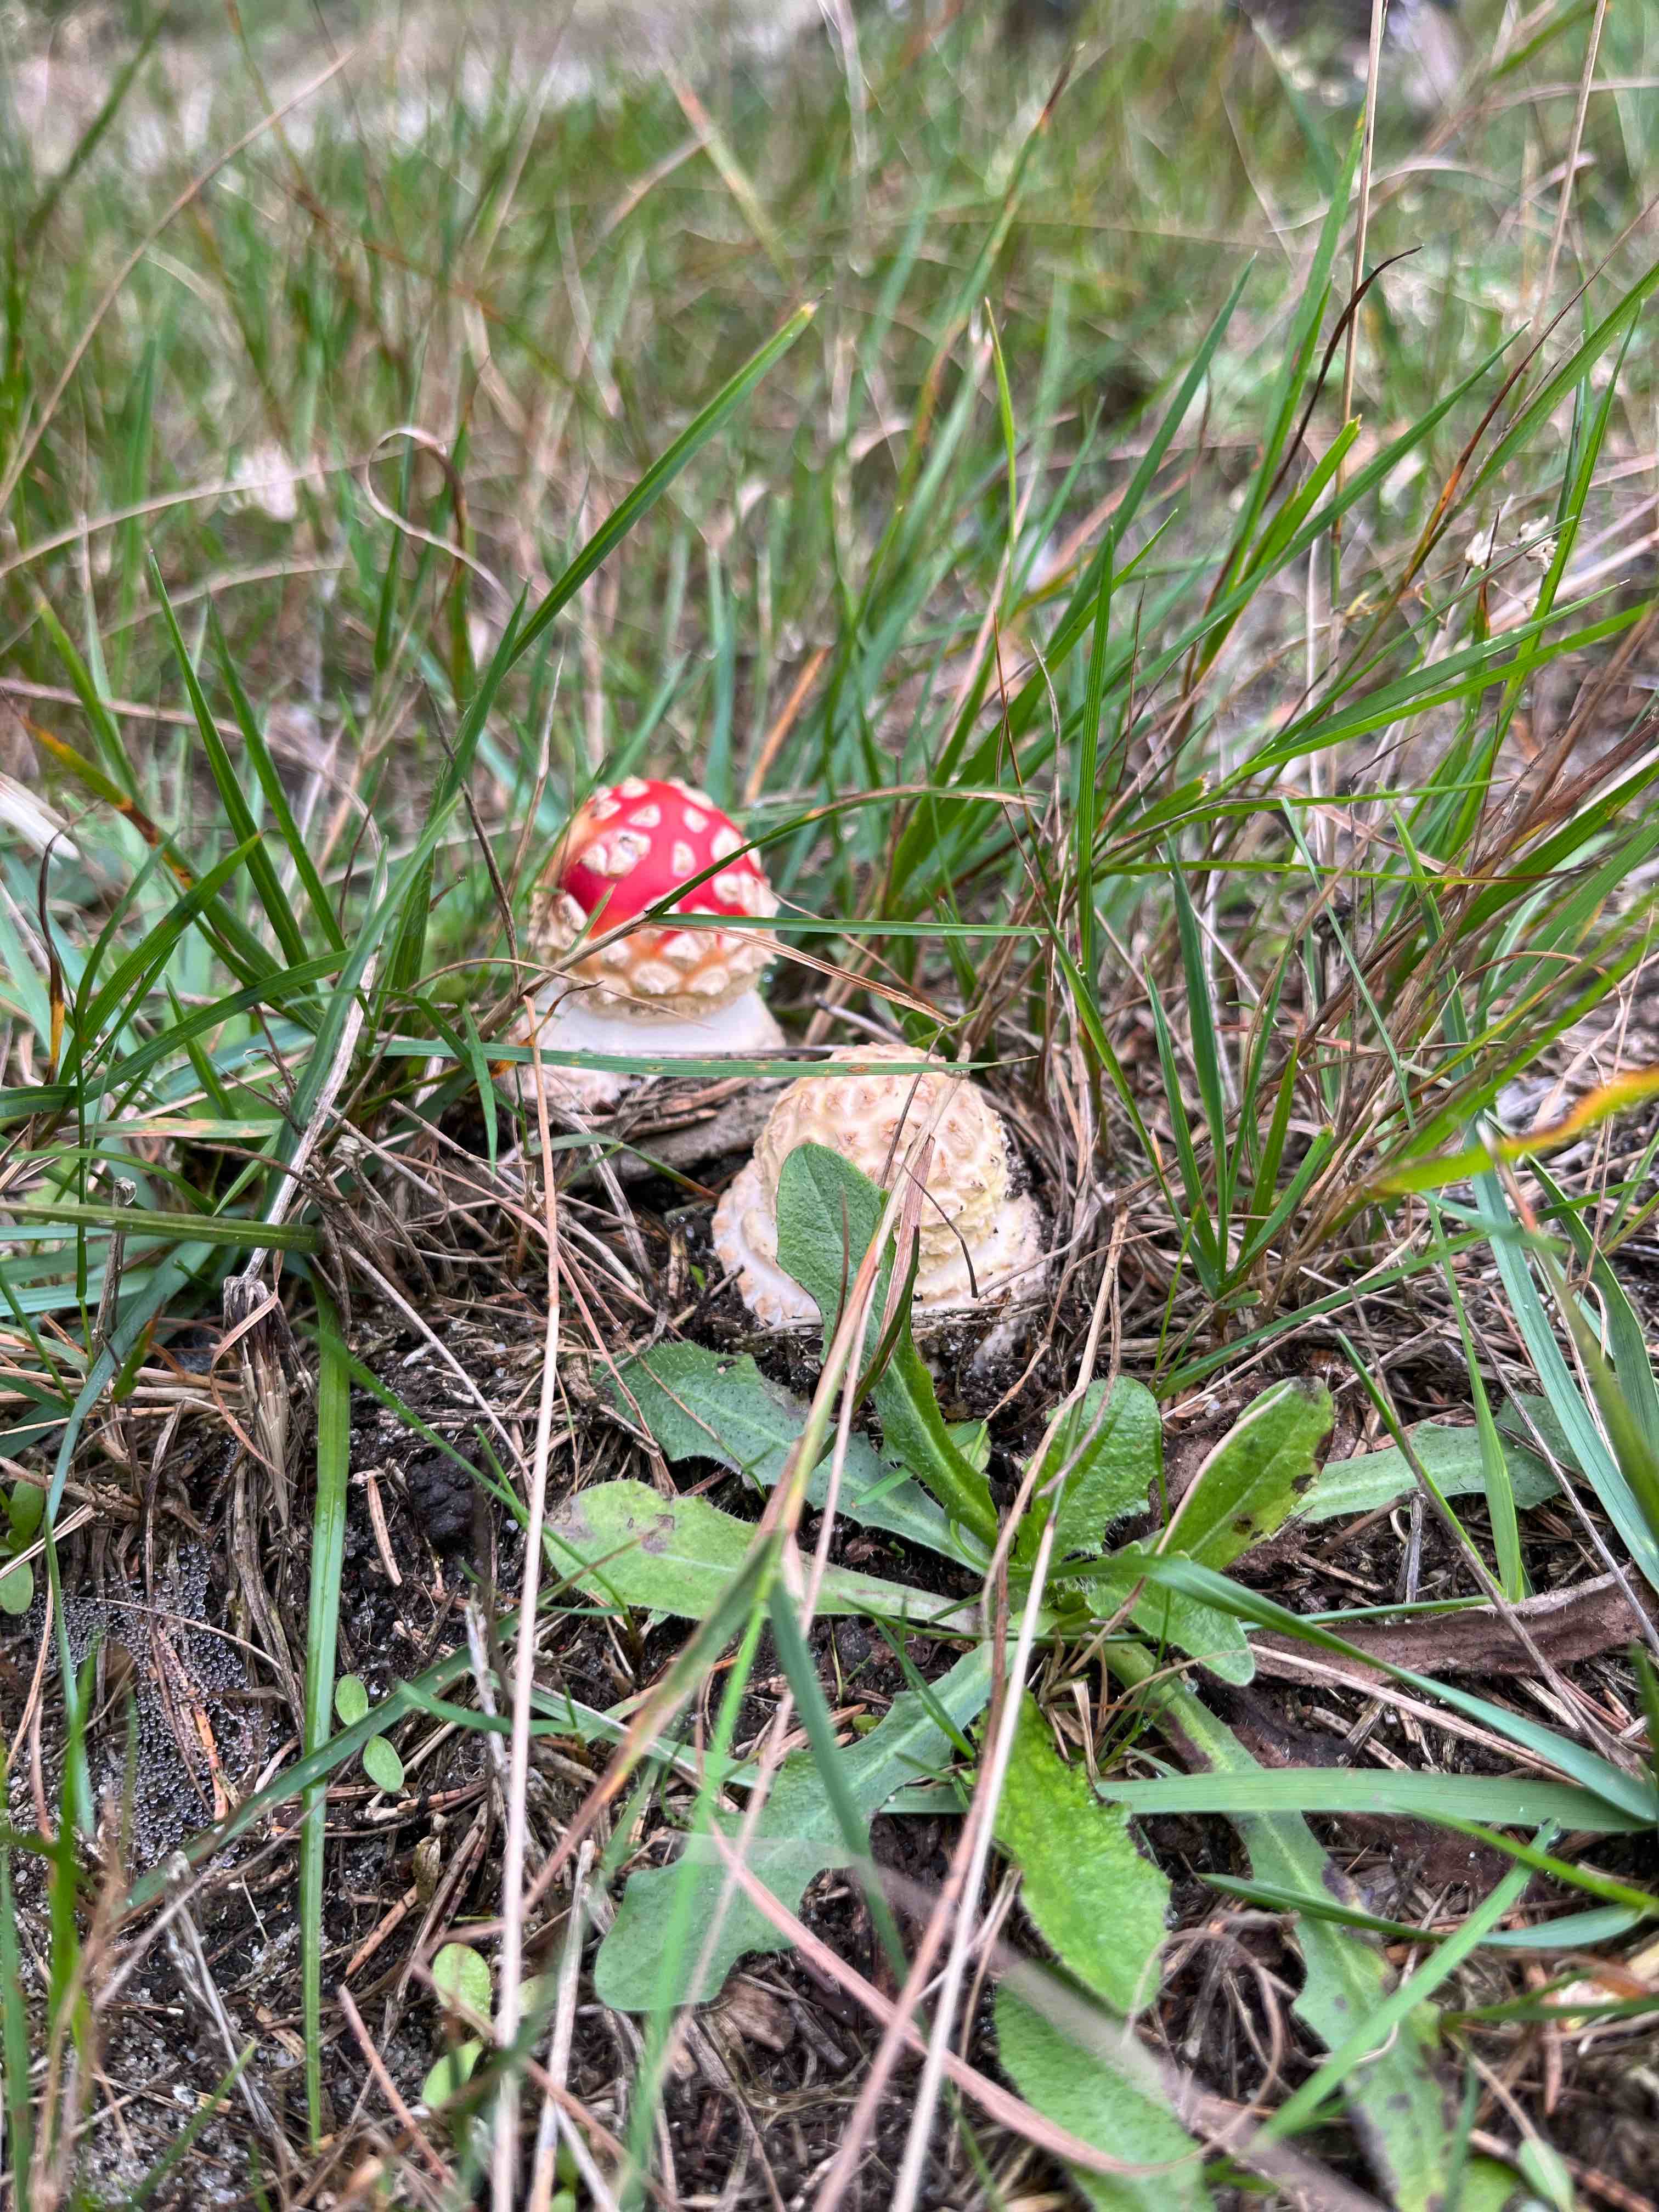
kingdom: Fungi
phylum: Basidiomycota
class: Agaricomycetes
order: Agaricales
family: Amanitaceae
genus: Amanita
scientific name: Amanita muscaria
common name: rød fluesvamp
